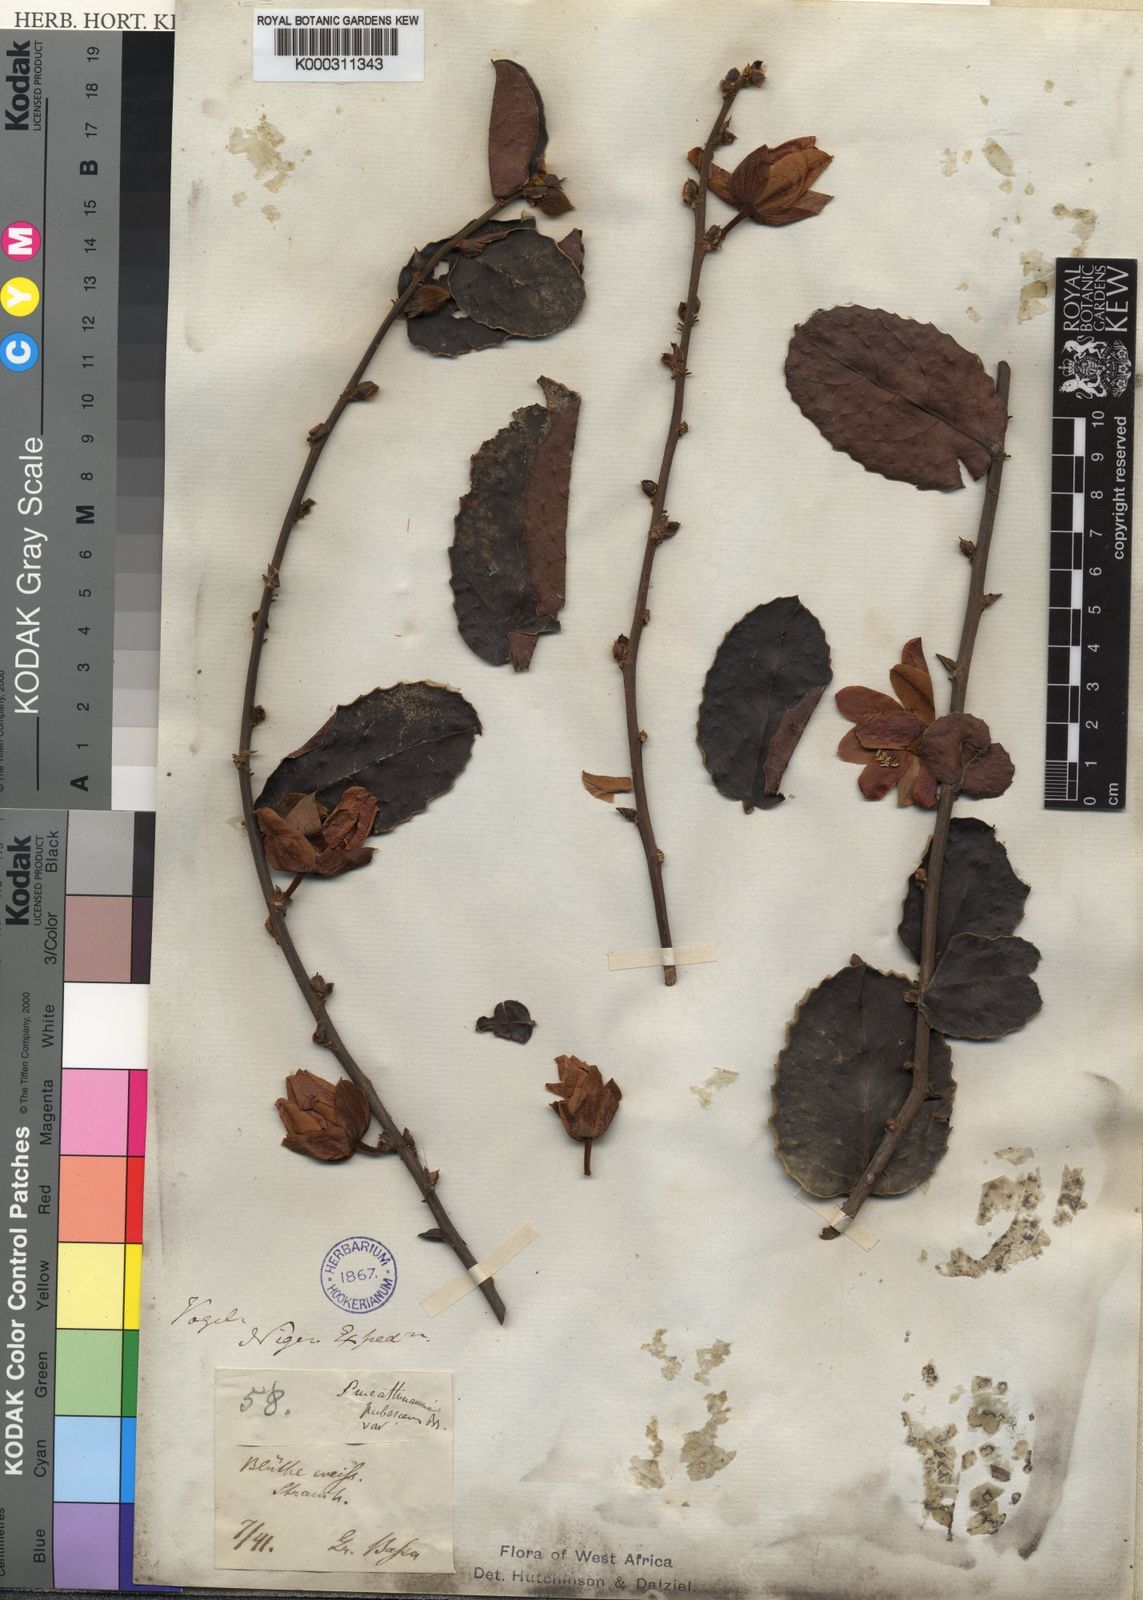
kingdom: Plantae
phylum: Tracheophyta
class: Magnoliopsida
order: Malpighiales
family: Passifloraceae
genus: Smeathmannia
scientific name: Smeathmannia pubescens
